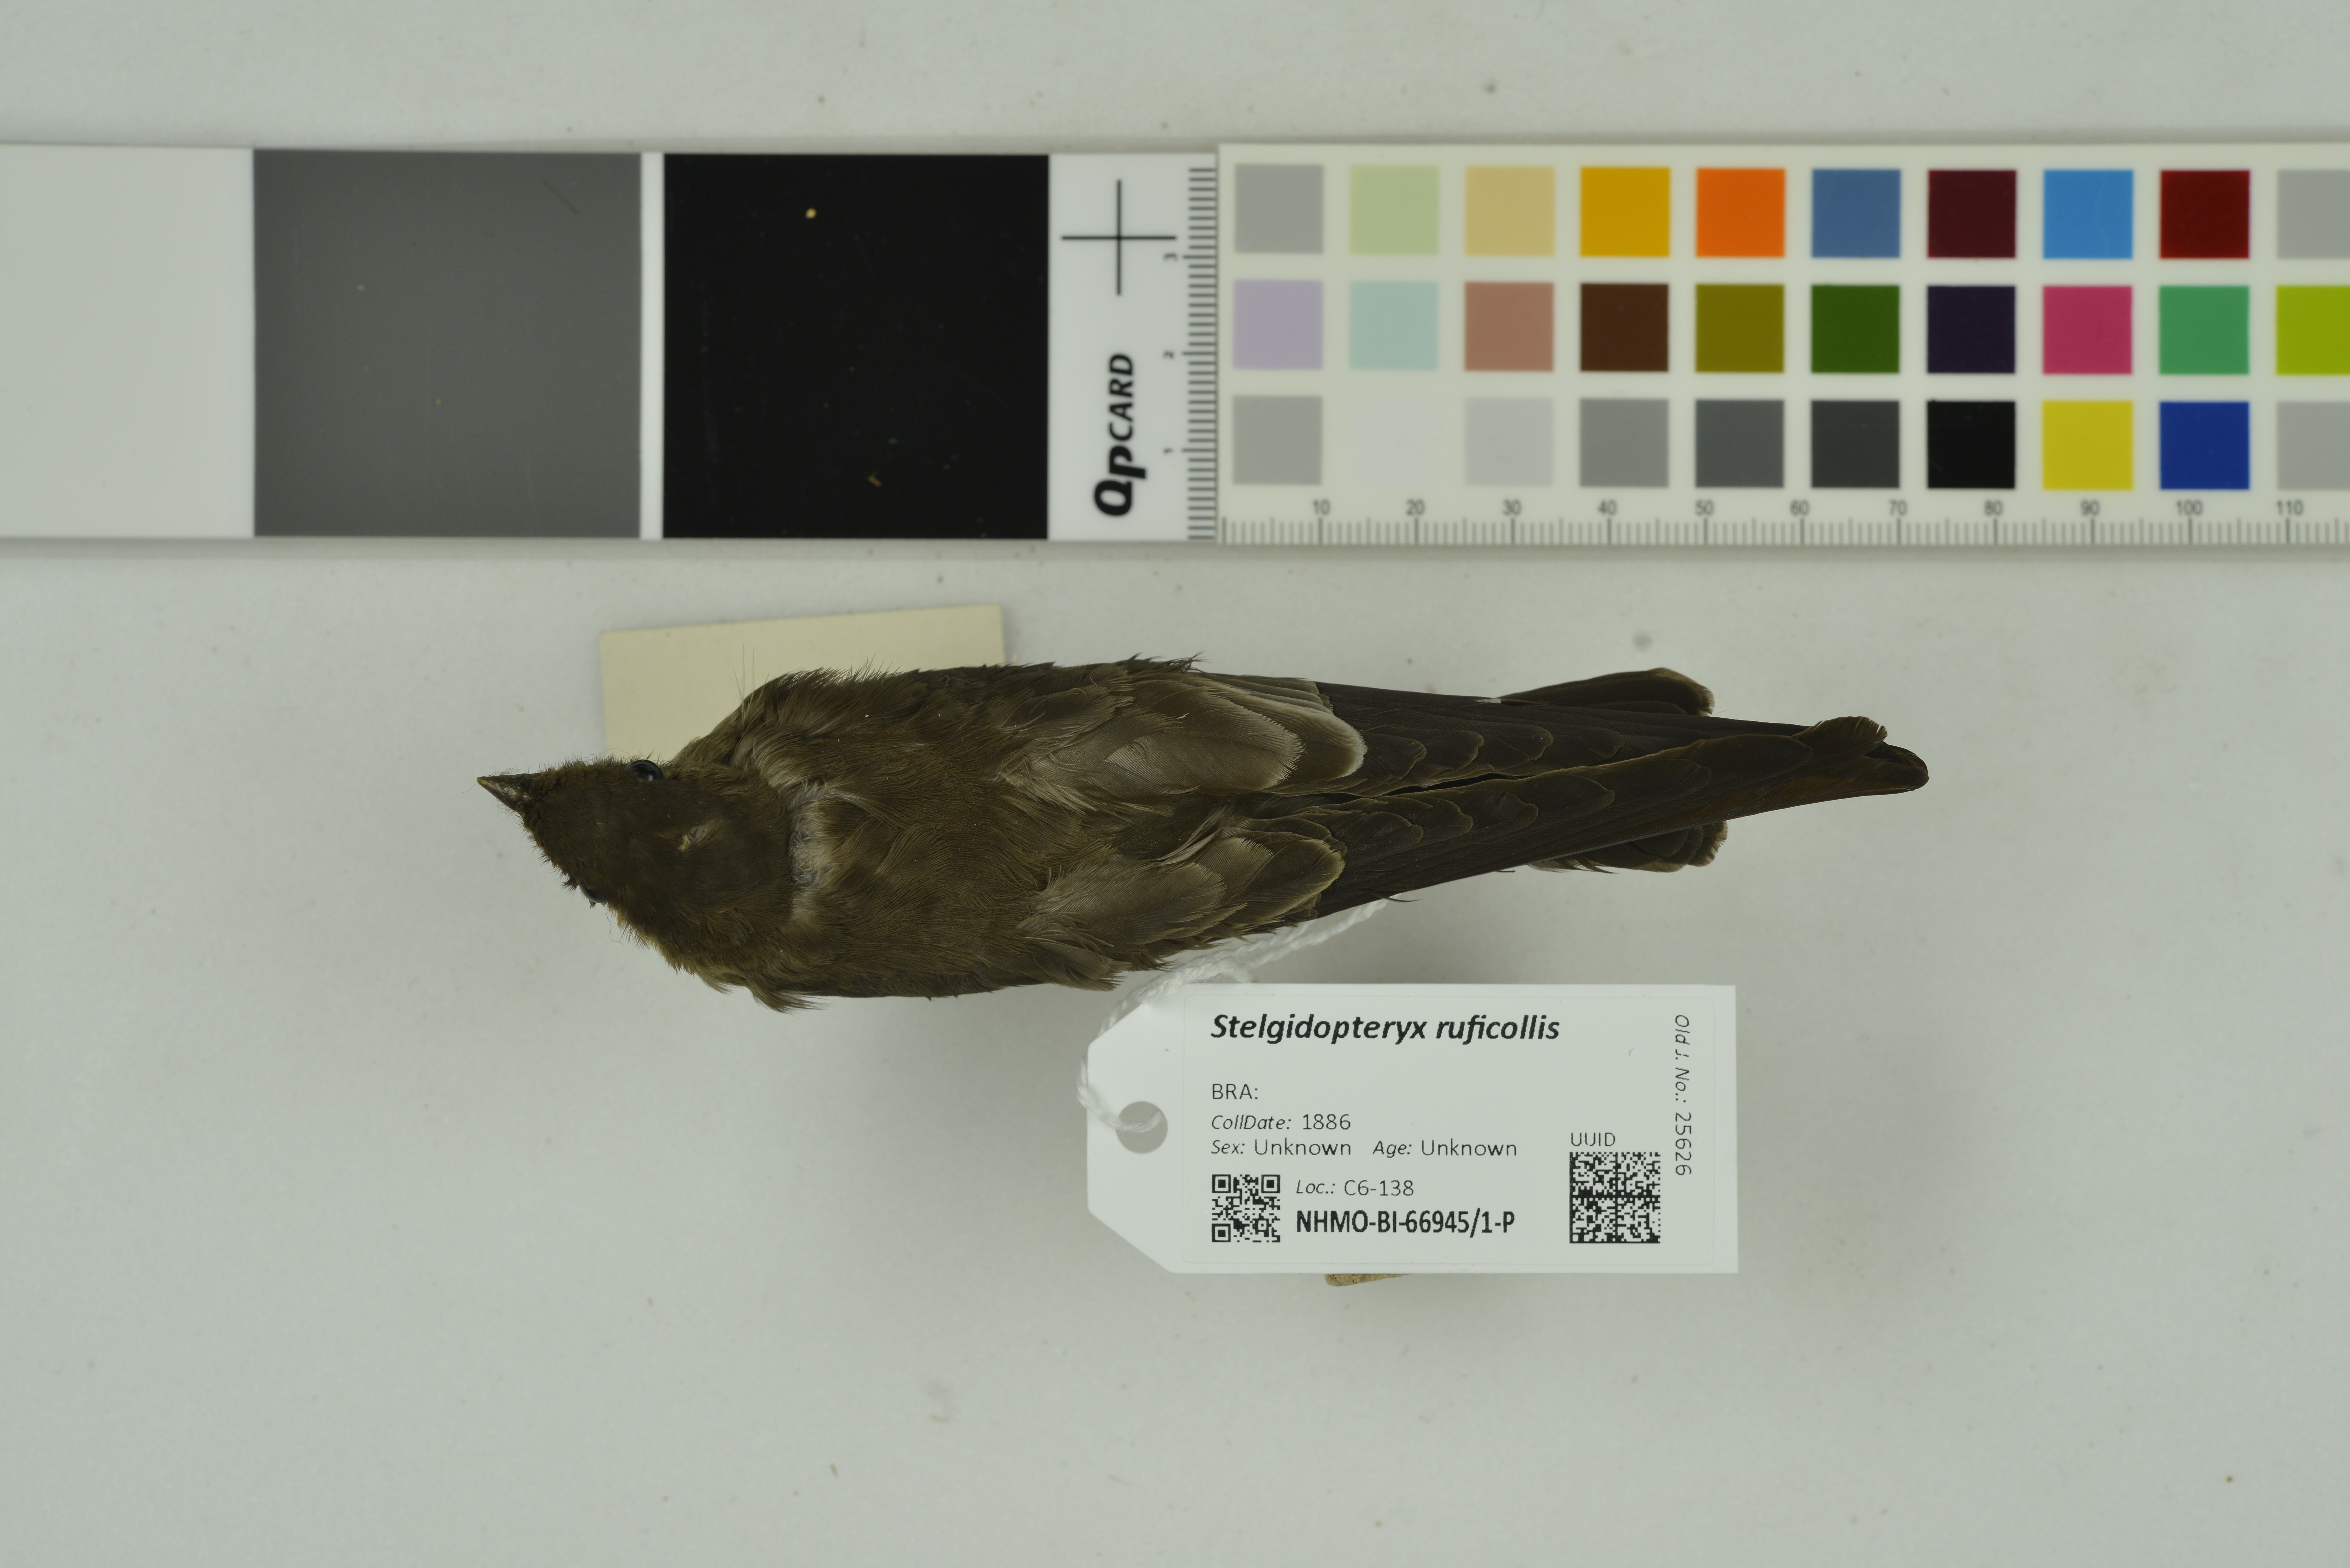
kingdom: Animalia
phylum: Chordata
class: Aves
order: Passeriformes
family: Hirundinidae
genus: Stelgidopteryx
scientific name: Stelgidopteryx ruficollis
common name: Southern rough-winged swallow
